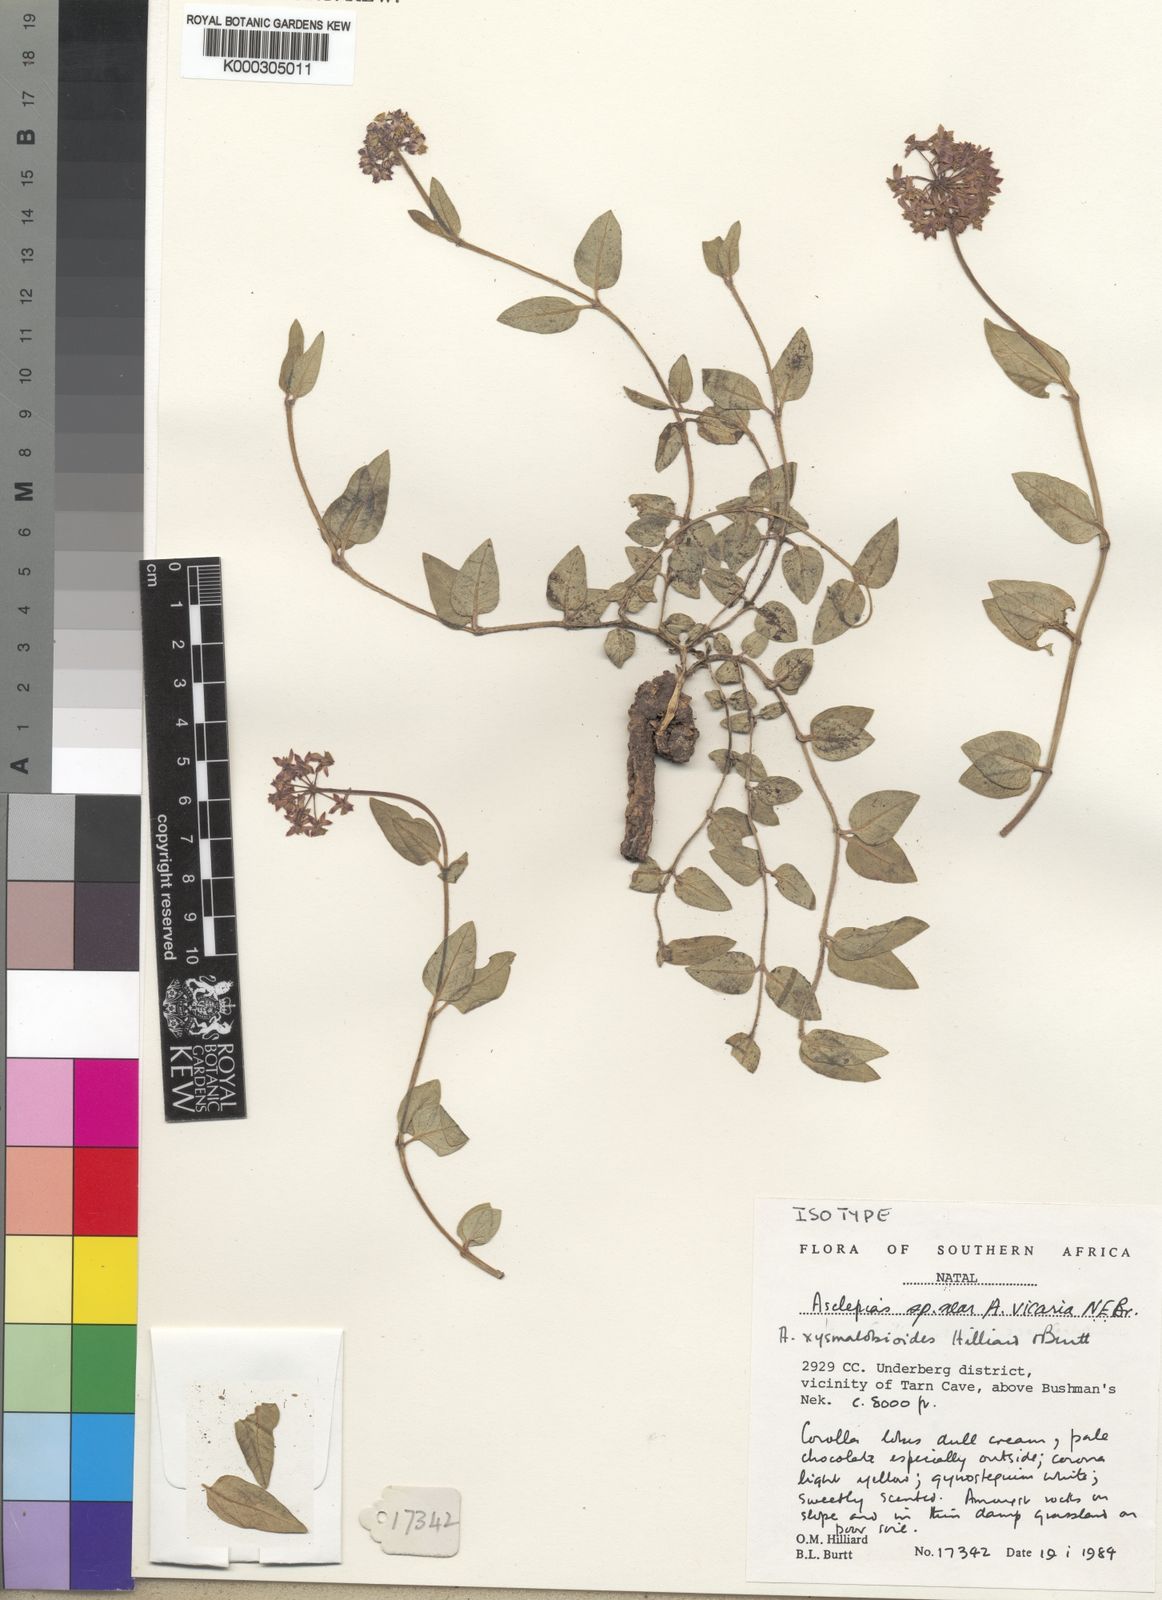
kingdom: Plantae
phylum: Tracheophyta
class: Magnoliopsida
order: Gentianales
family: Apocynaceae
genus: Asclepias
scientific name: Asclepias montevaga
